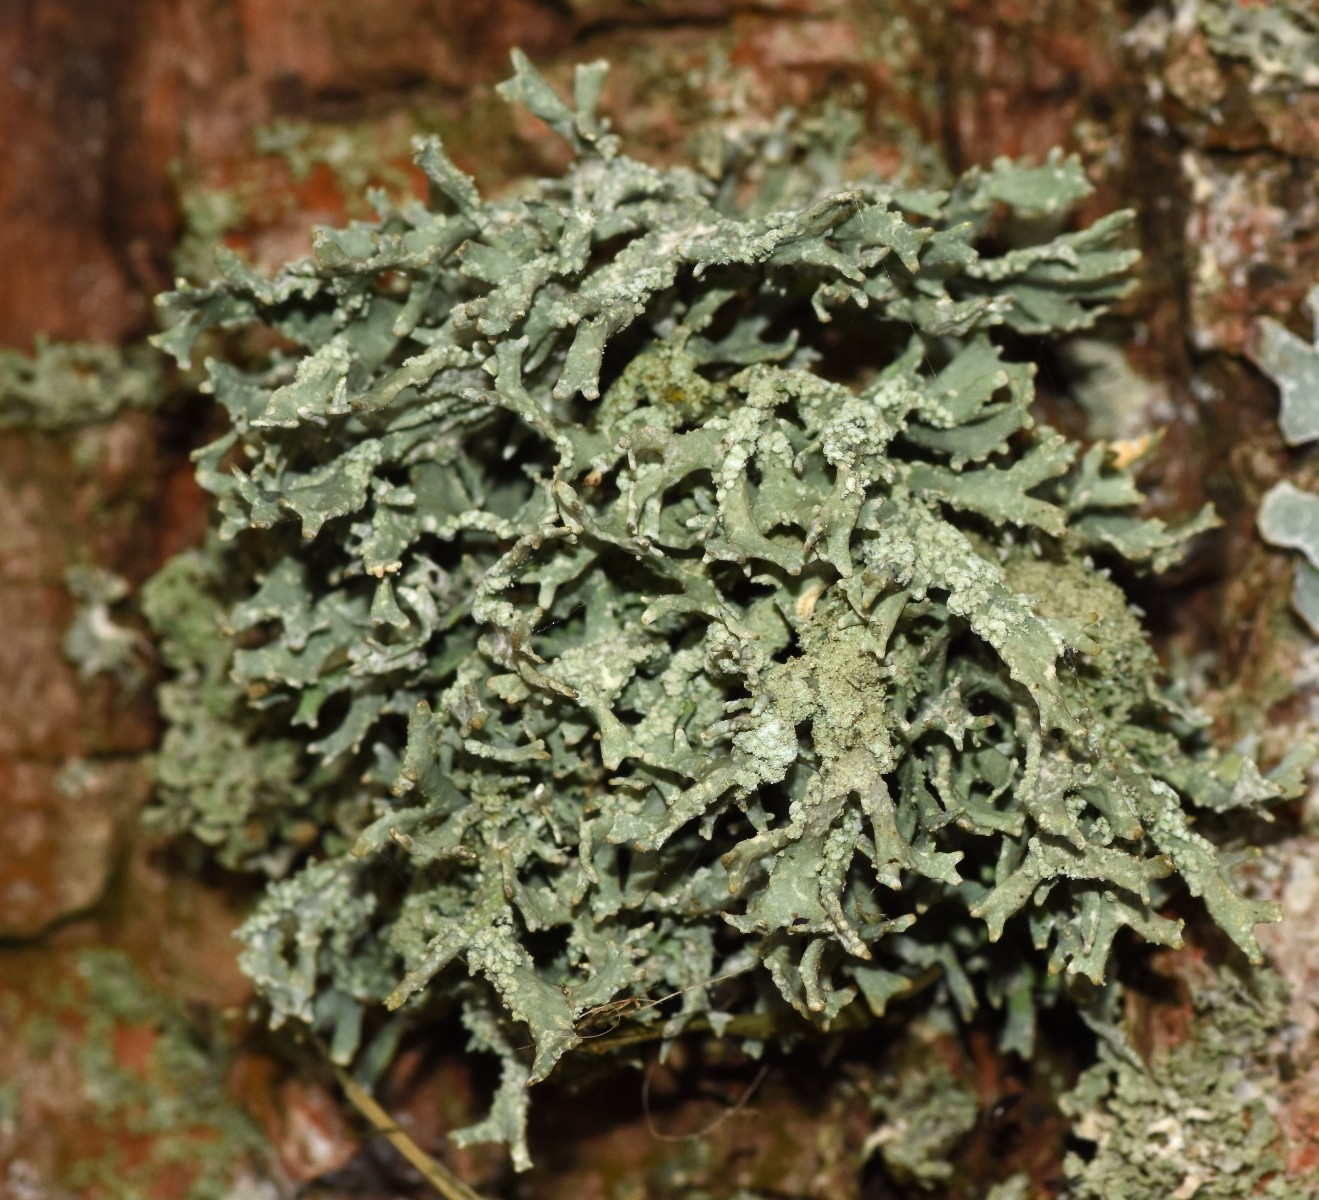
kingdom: Fungi
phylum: Ascomycota
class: Lecanoromycetes
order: Lecanorales
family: Parmeliaceae
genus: Evernia
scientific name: Evernia prunastri
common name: almindelig slåenlav
